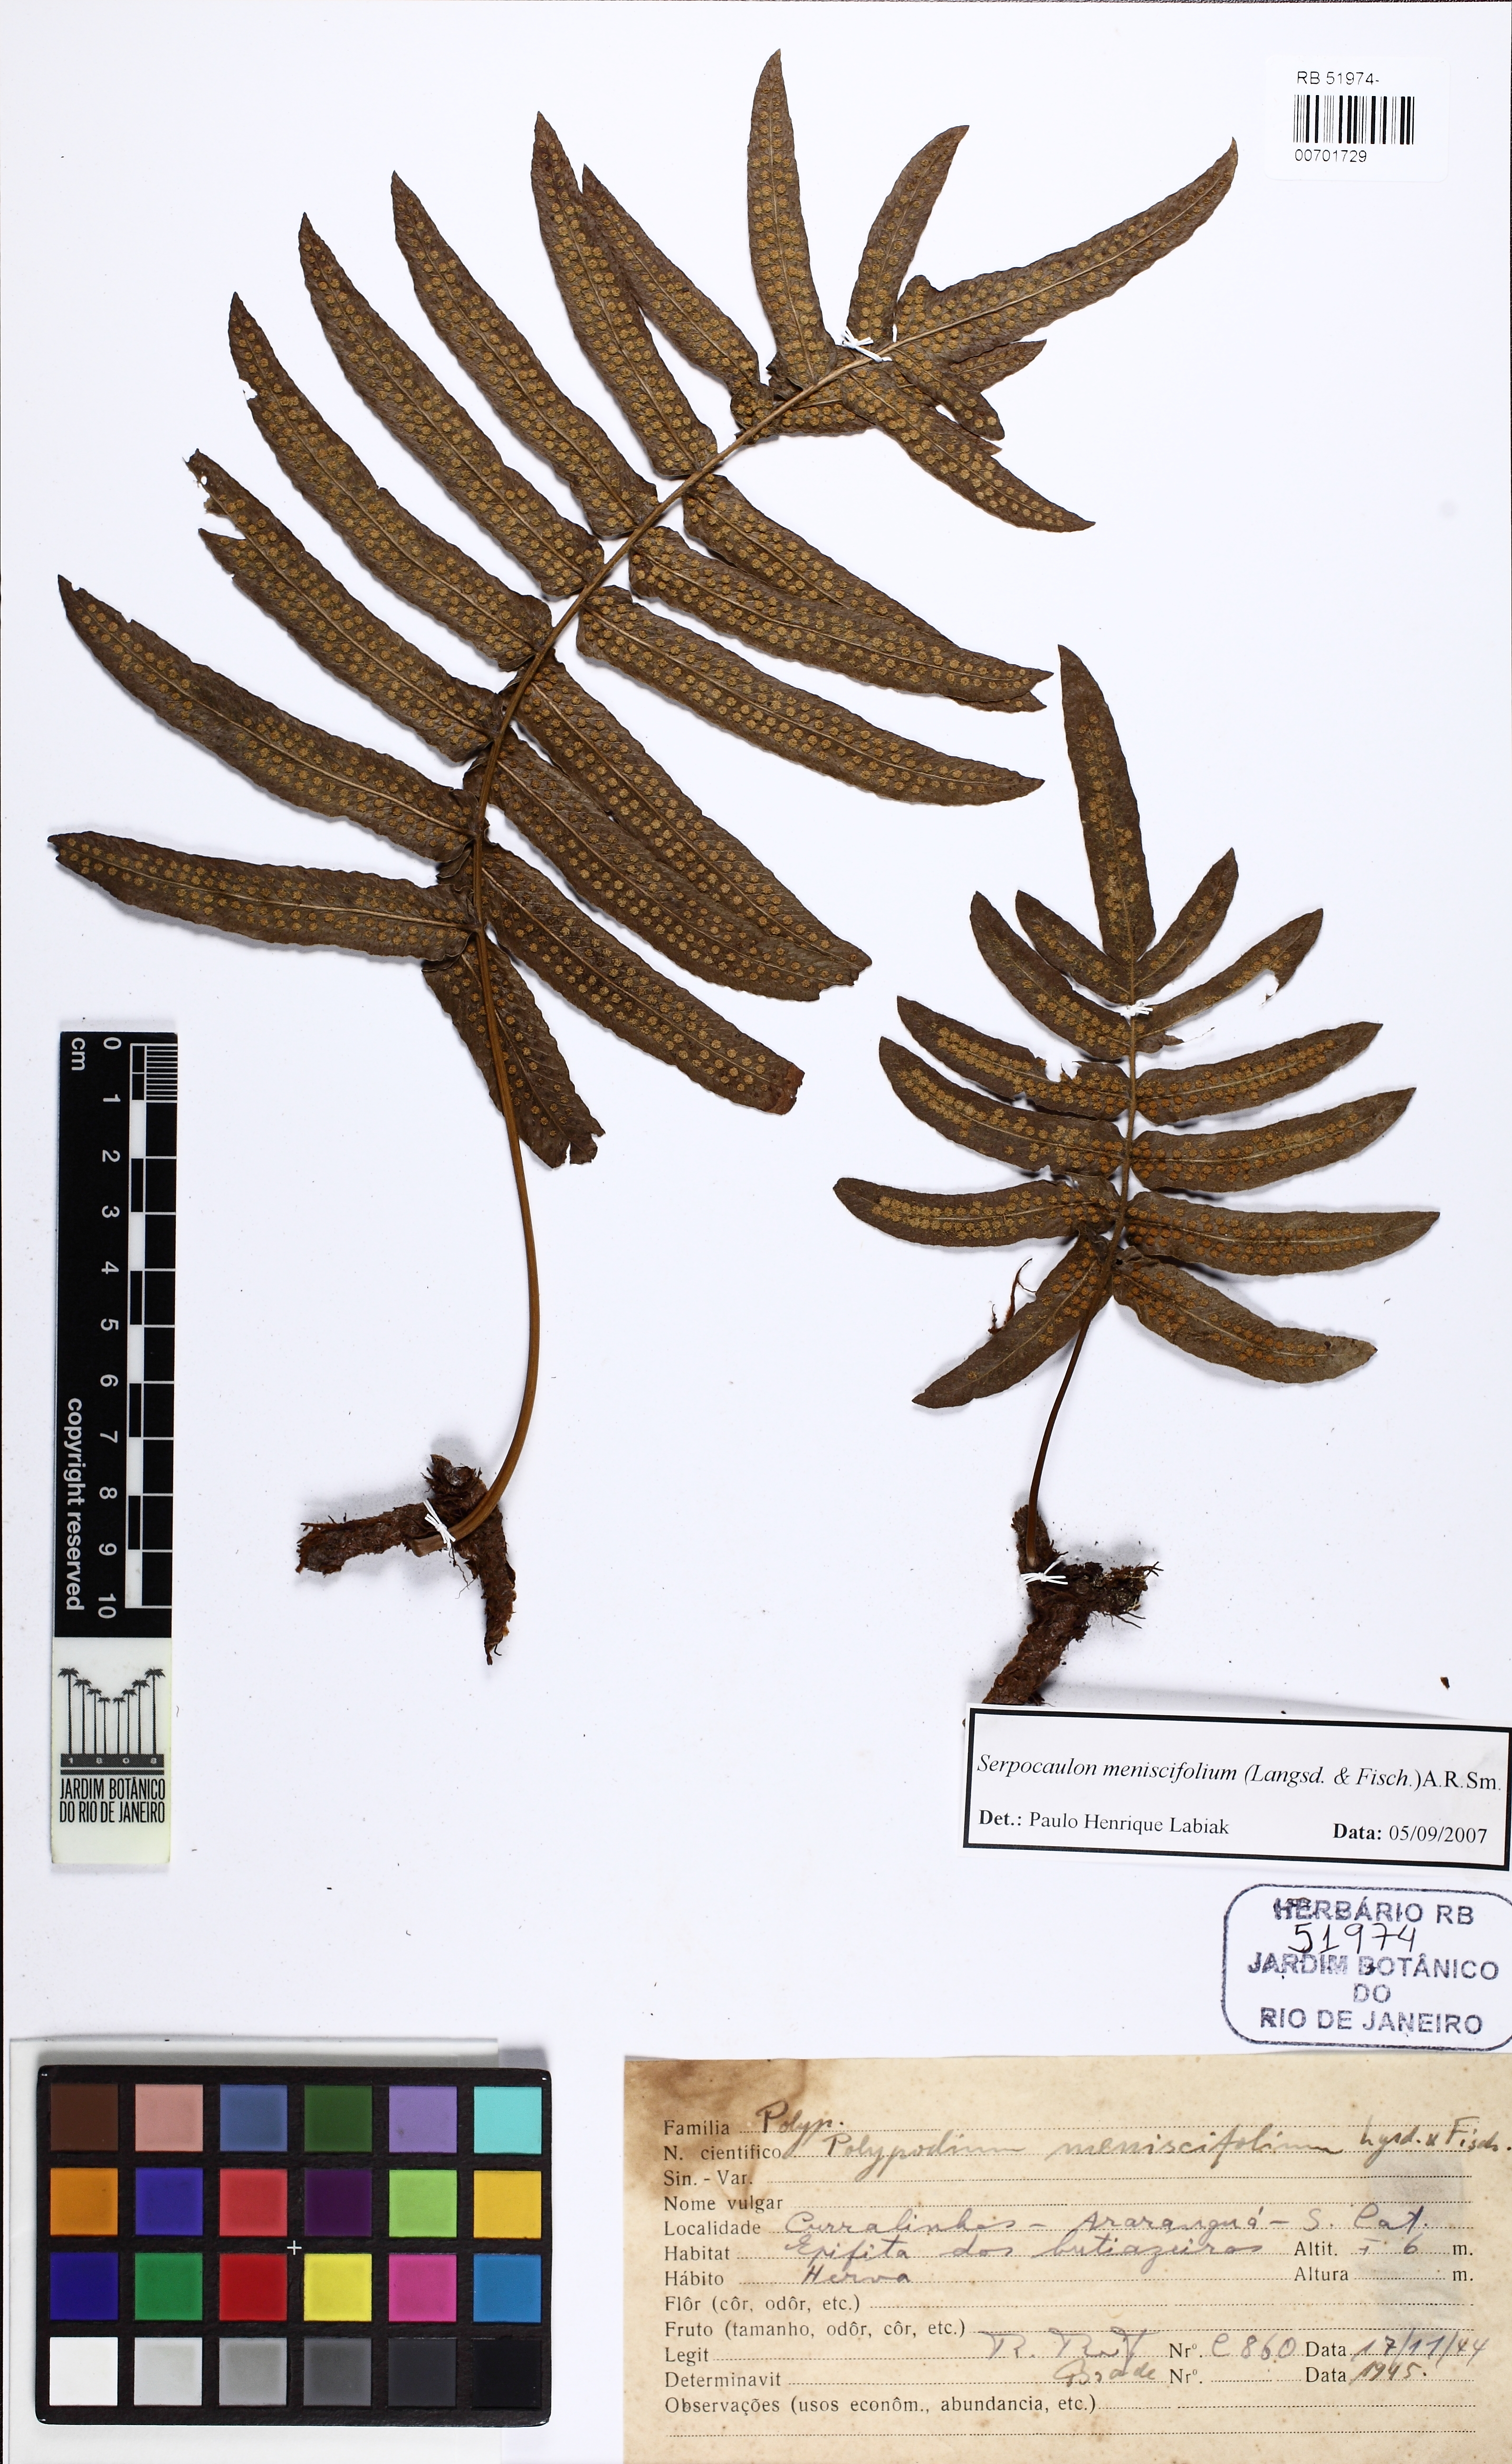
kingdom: Plantae
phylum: Tracheophyta
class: Polypodiopsida
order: Polypodiales
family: Polypodiaceae
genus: Serpocaulon
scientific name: Serpocaulon menisciifolium
